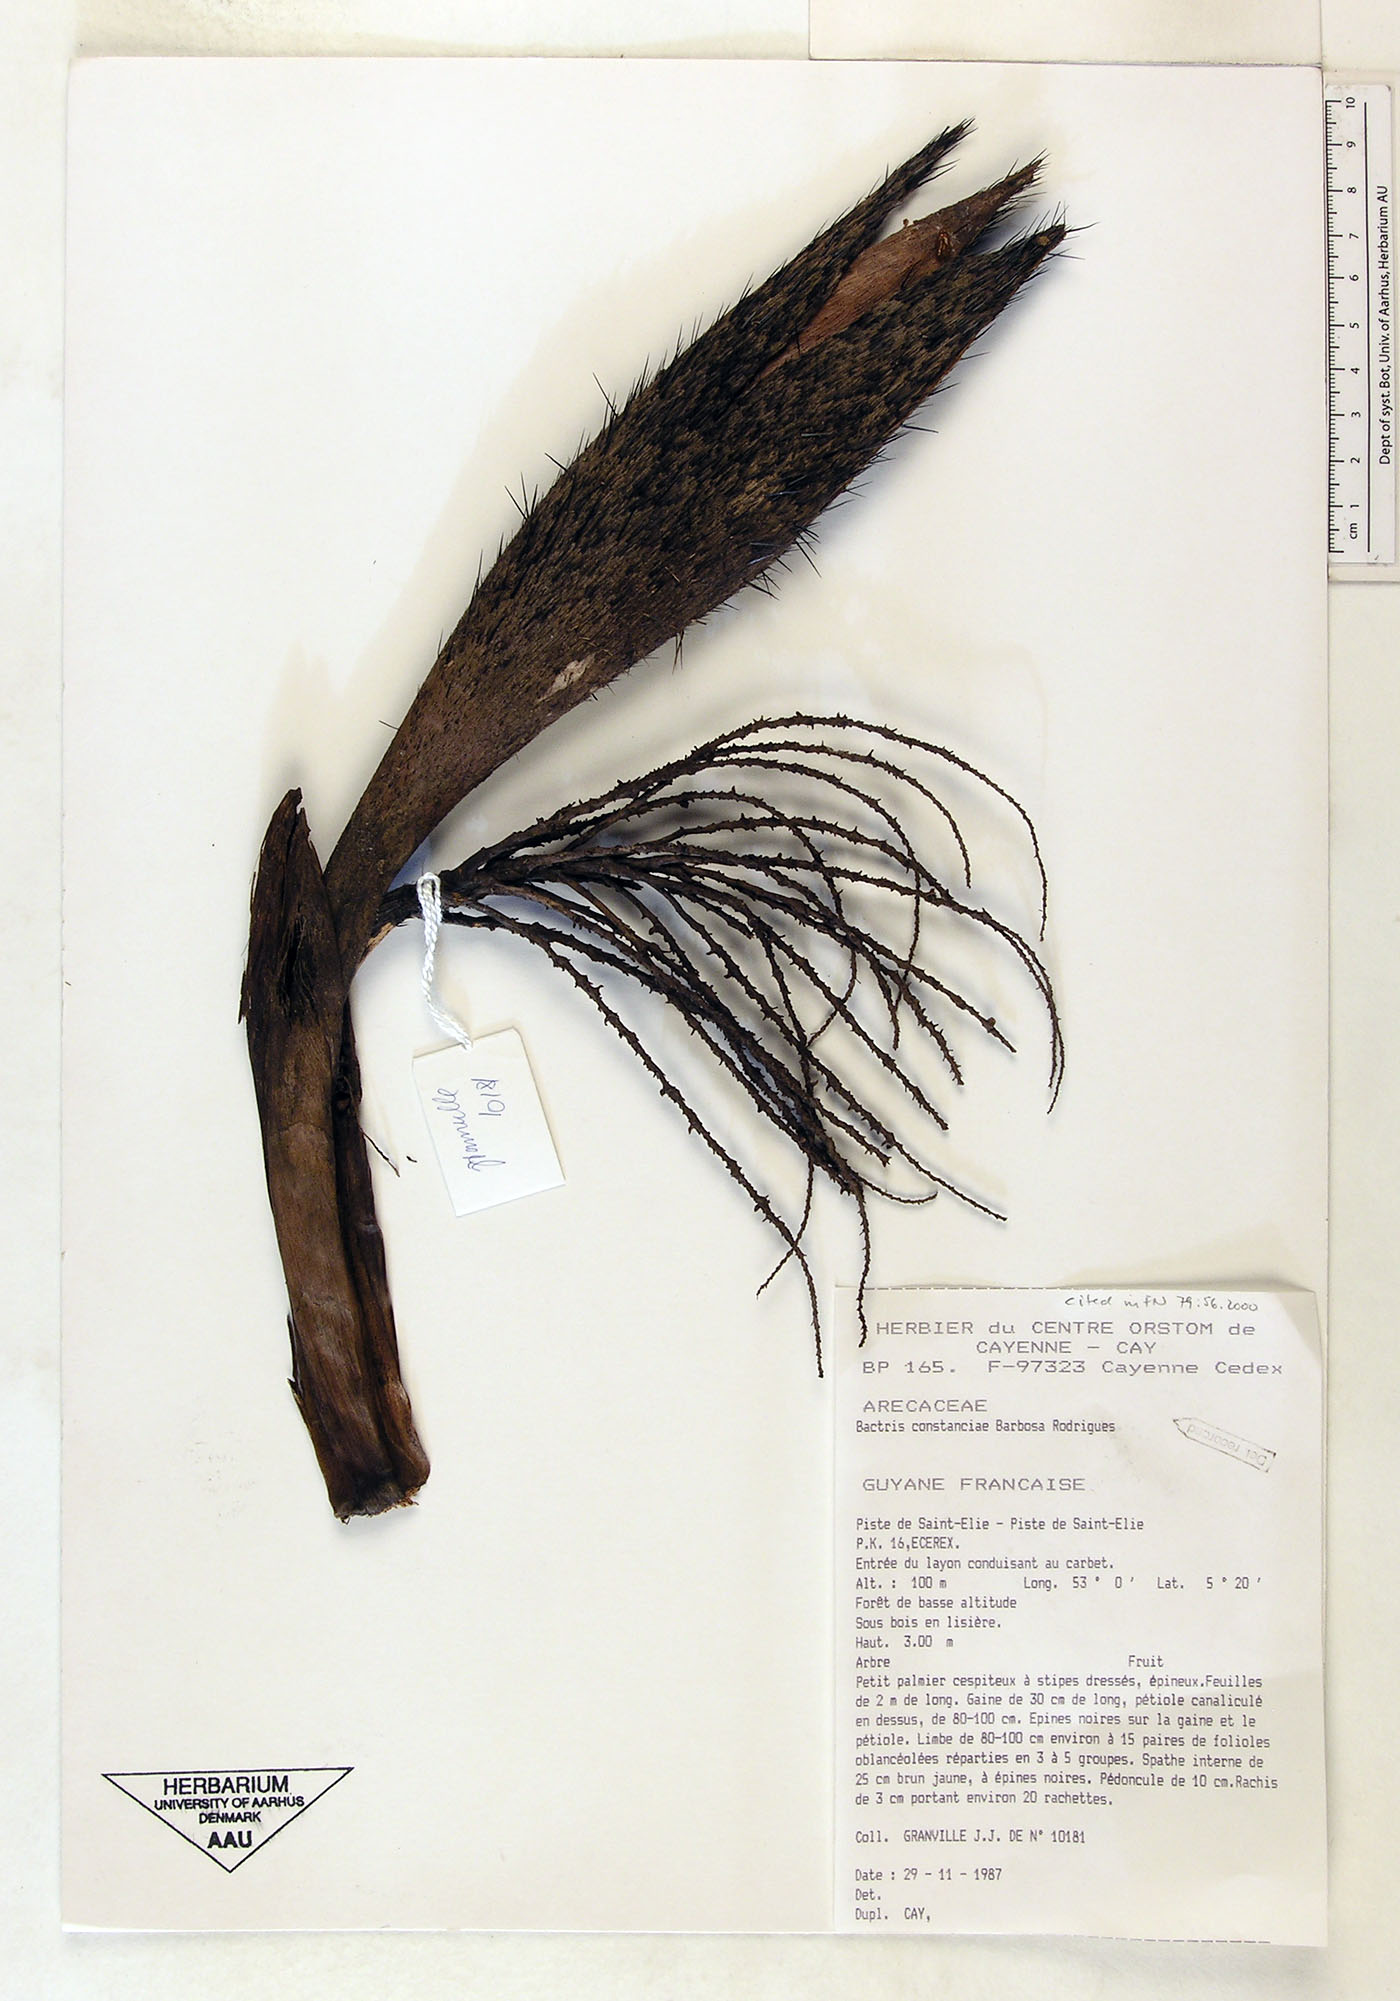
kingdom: Plantae
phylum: Tracheophyta
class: Liliopsida
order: Arecales
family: Arecaceae
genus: Bactris
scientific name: Bactris constanciae
